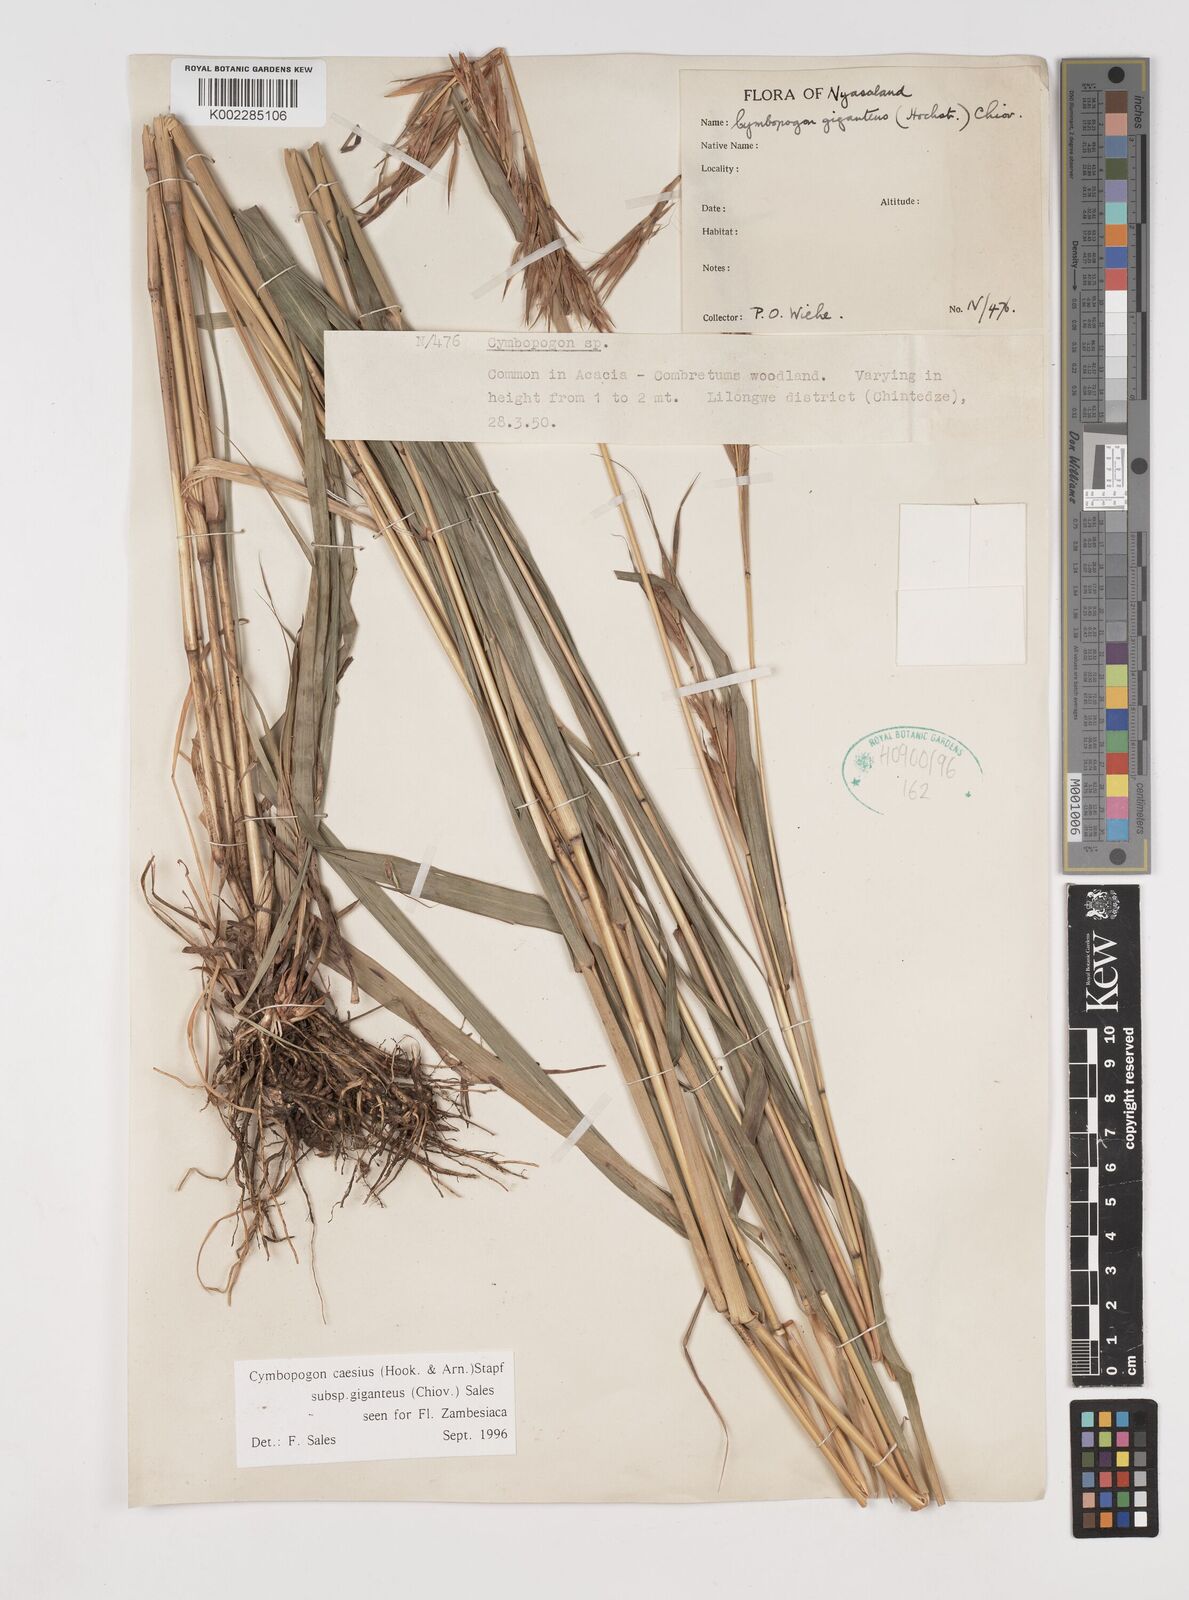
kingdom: Plantae
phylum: Tracheophyta
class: Liliopsida
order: Poales
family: Poaceae
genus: Cymbopogon
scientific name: Cymbopogon giganteus
